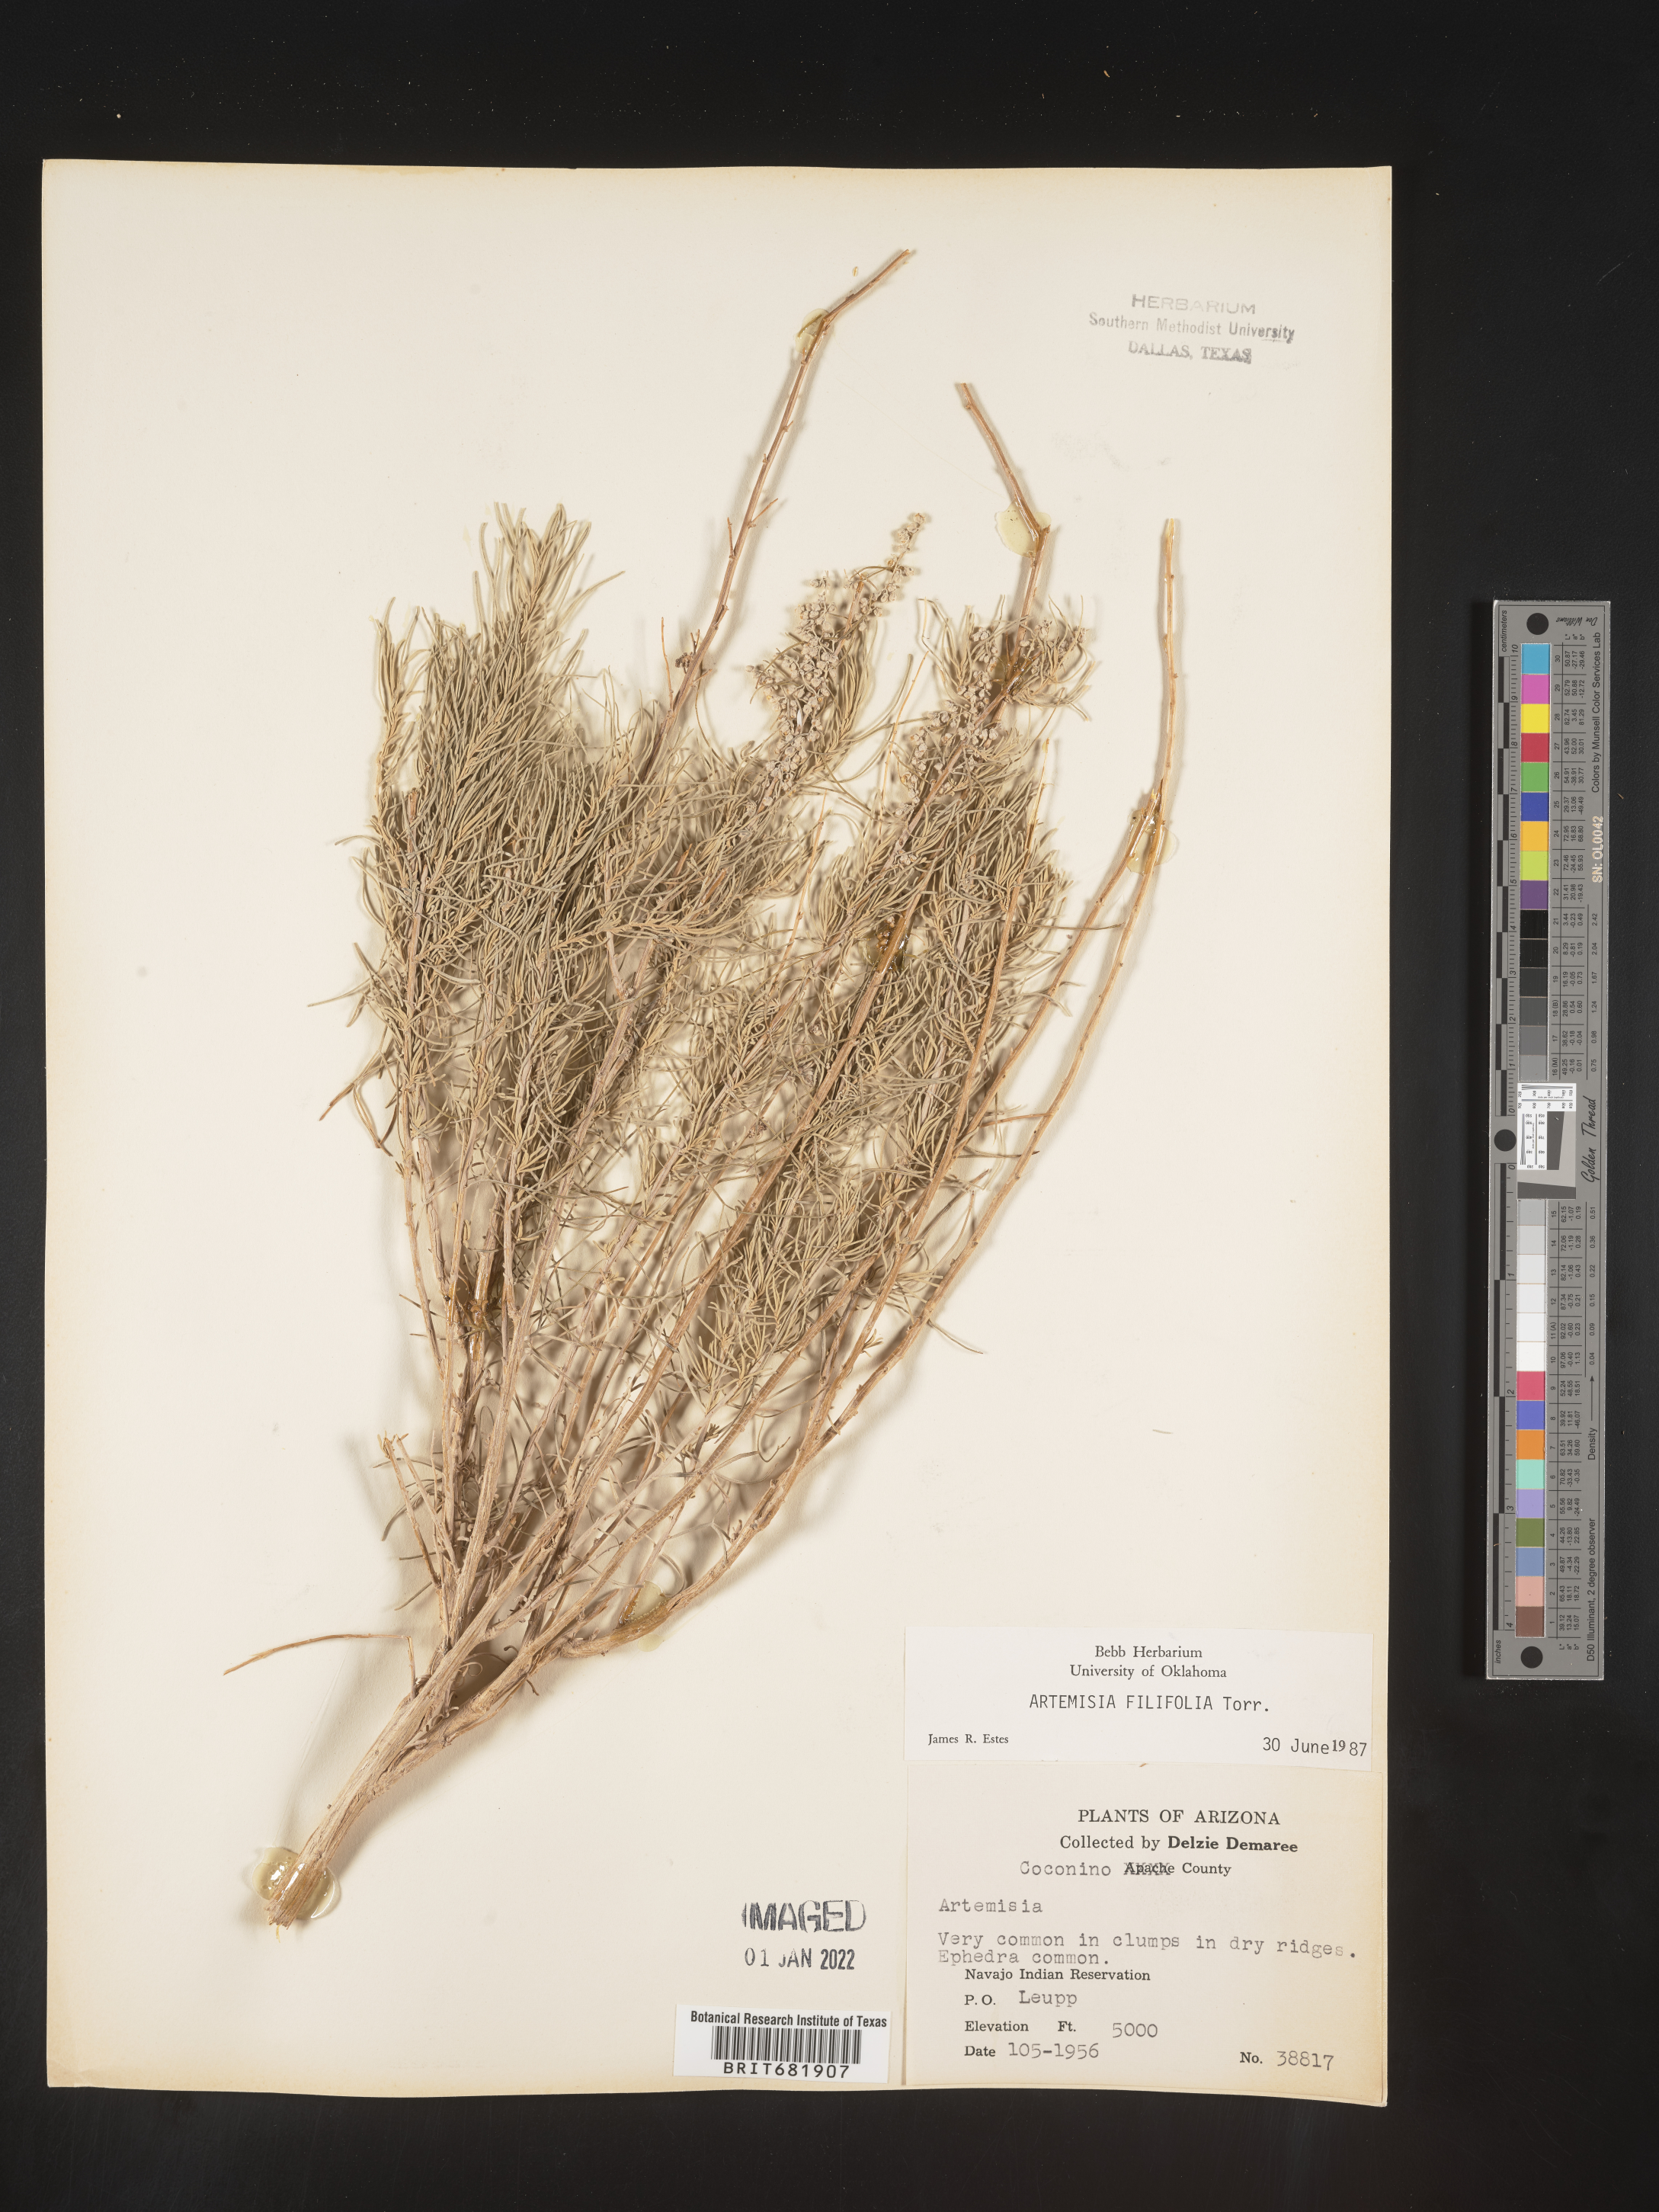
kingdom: Plantae
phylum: Tracheophyta
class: Magnoliopsida
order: Asterales
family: Asteraceae
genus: Artemisia
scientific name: Artemisia filifolia
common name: Sand-sage
